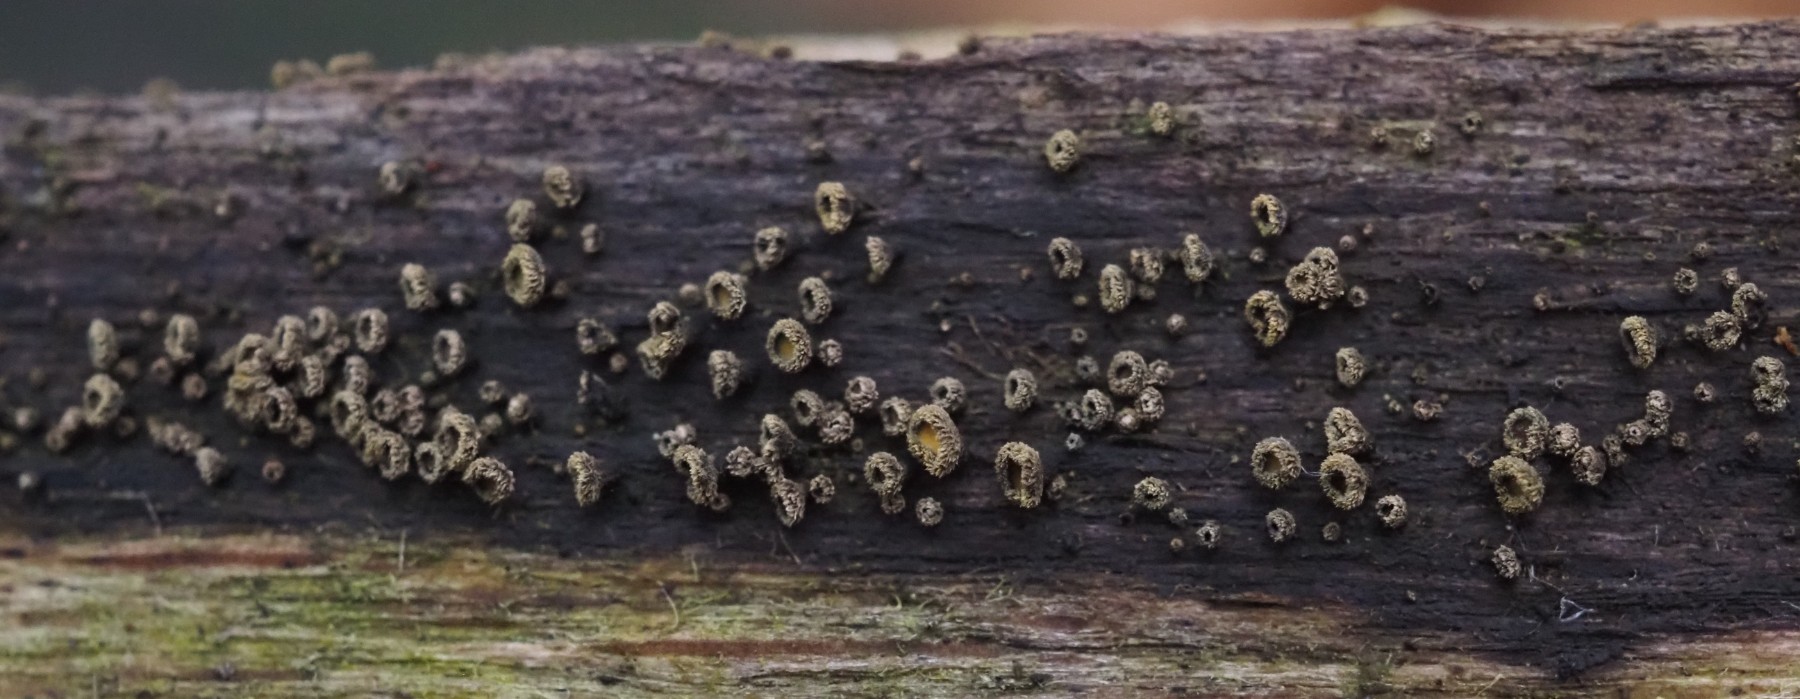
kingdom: Fungi
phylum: Ascomycota
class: Leotiomycetes
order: Helotiales
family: Lachnaceae
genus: Neodasyscypha
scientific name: Neodasyscypha cerina
